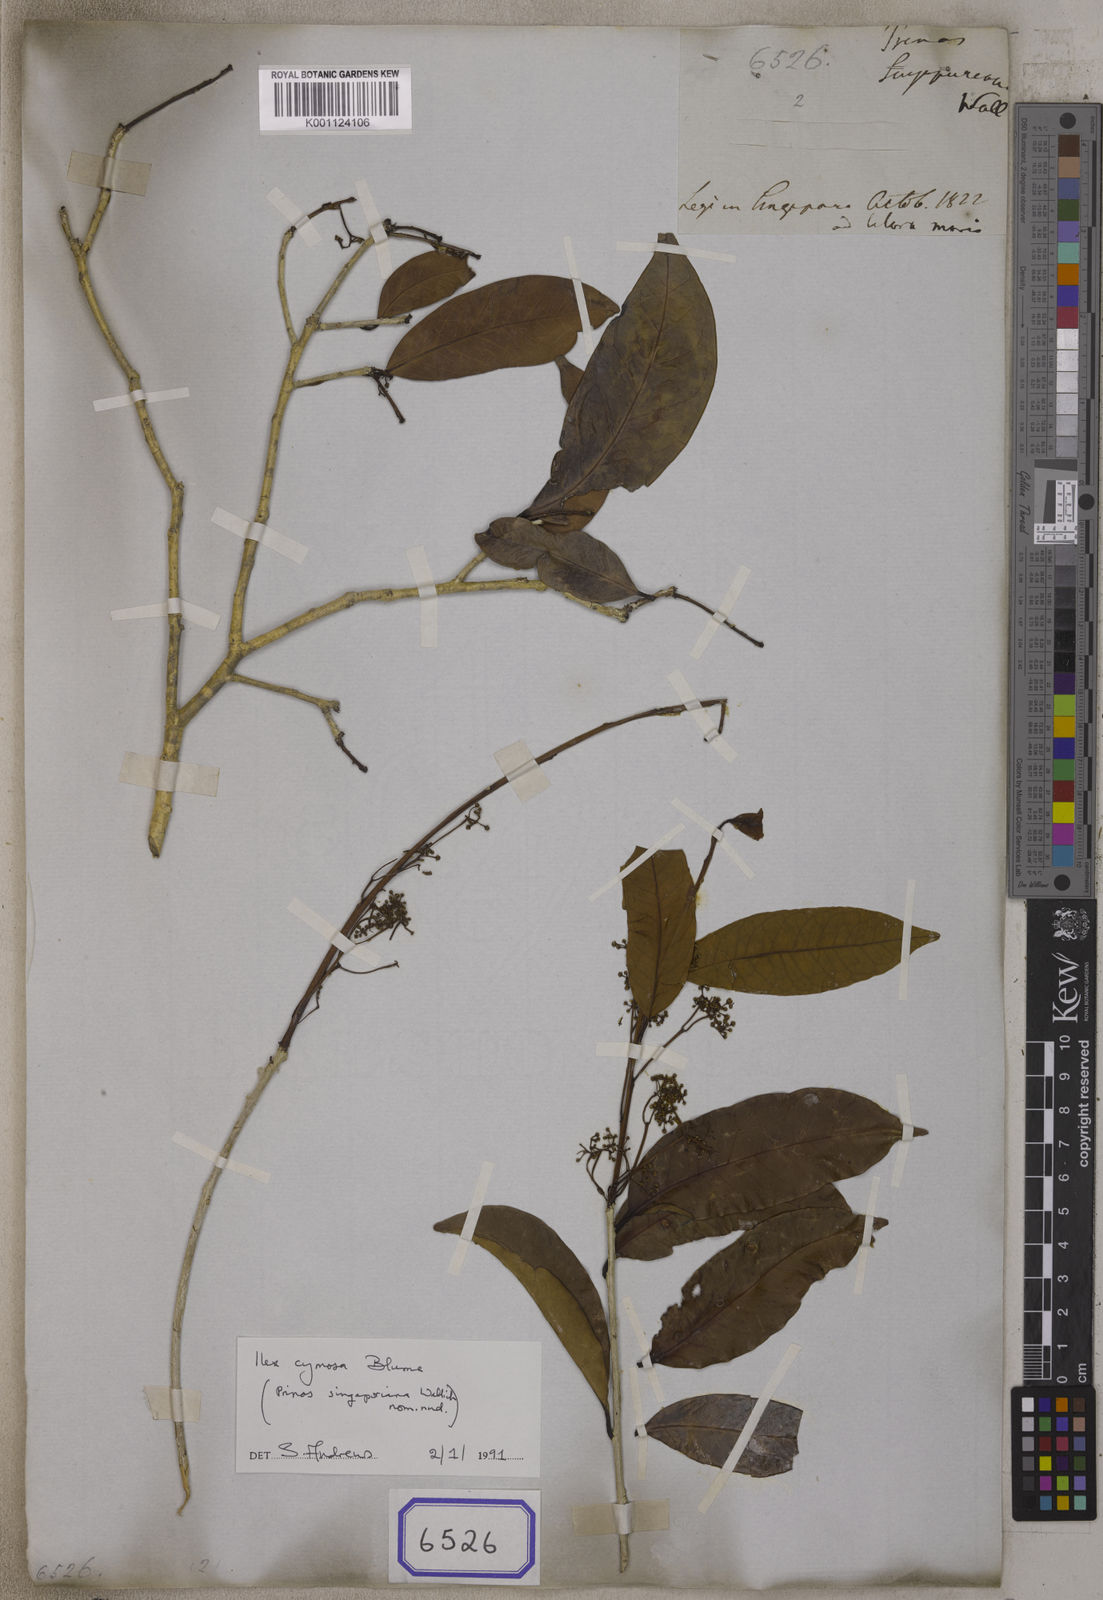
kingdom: Plantae
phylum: Tracheophyta
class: Magnoliopsida
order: Aquifoliales
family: Aquifoliaceae
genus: Ilex
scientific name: Ilex cymosa
